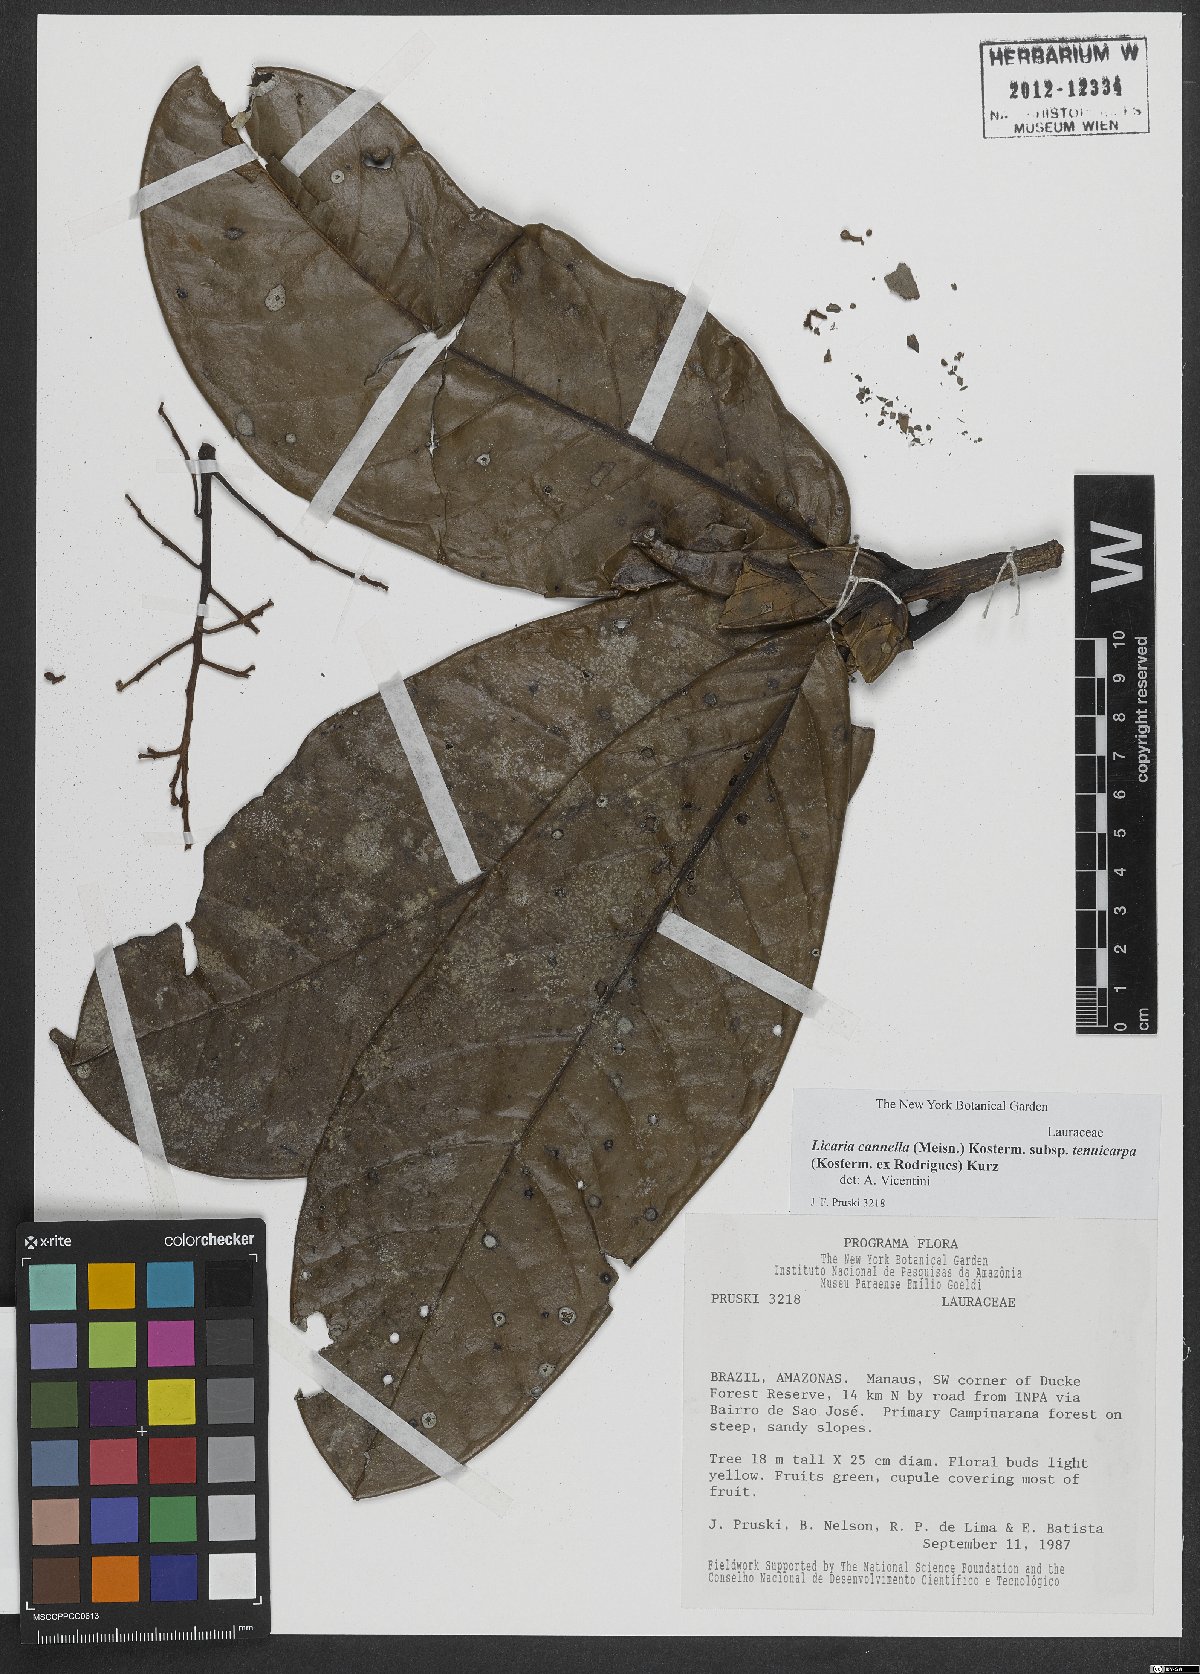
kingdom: Plantae
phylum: Tracheophyta
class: Magnoliopsida
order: Laurales
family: Lauraceae
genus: Licaria
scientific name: Licaria canella
